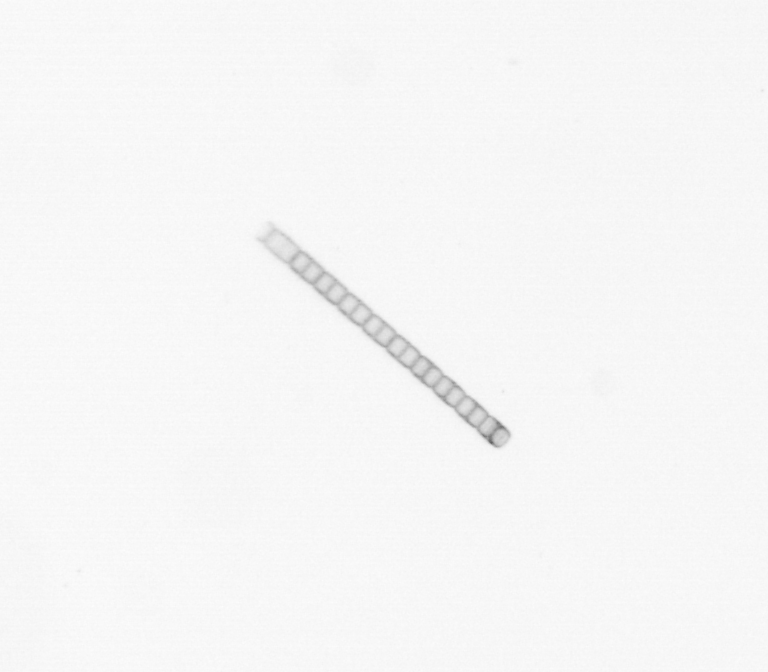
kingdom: Chromista
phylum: Ochrophyta
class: Bacillariophyceae
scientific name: Bacillariophyceae
